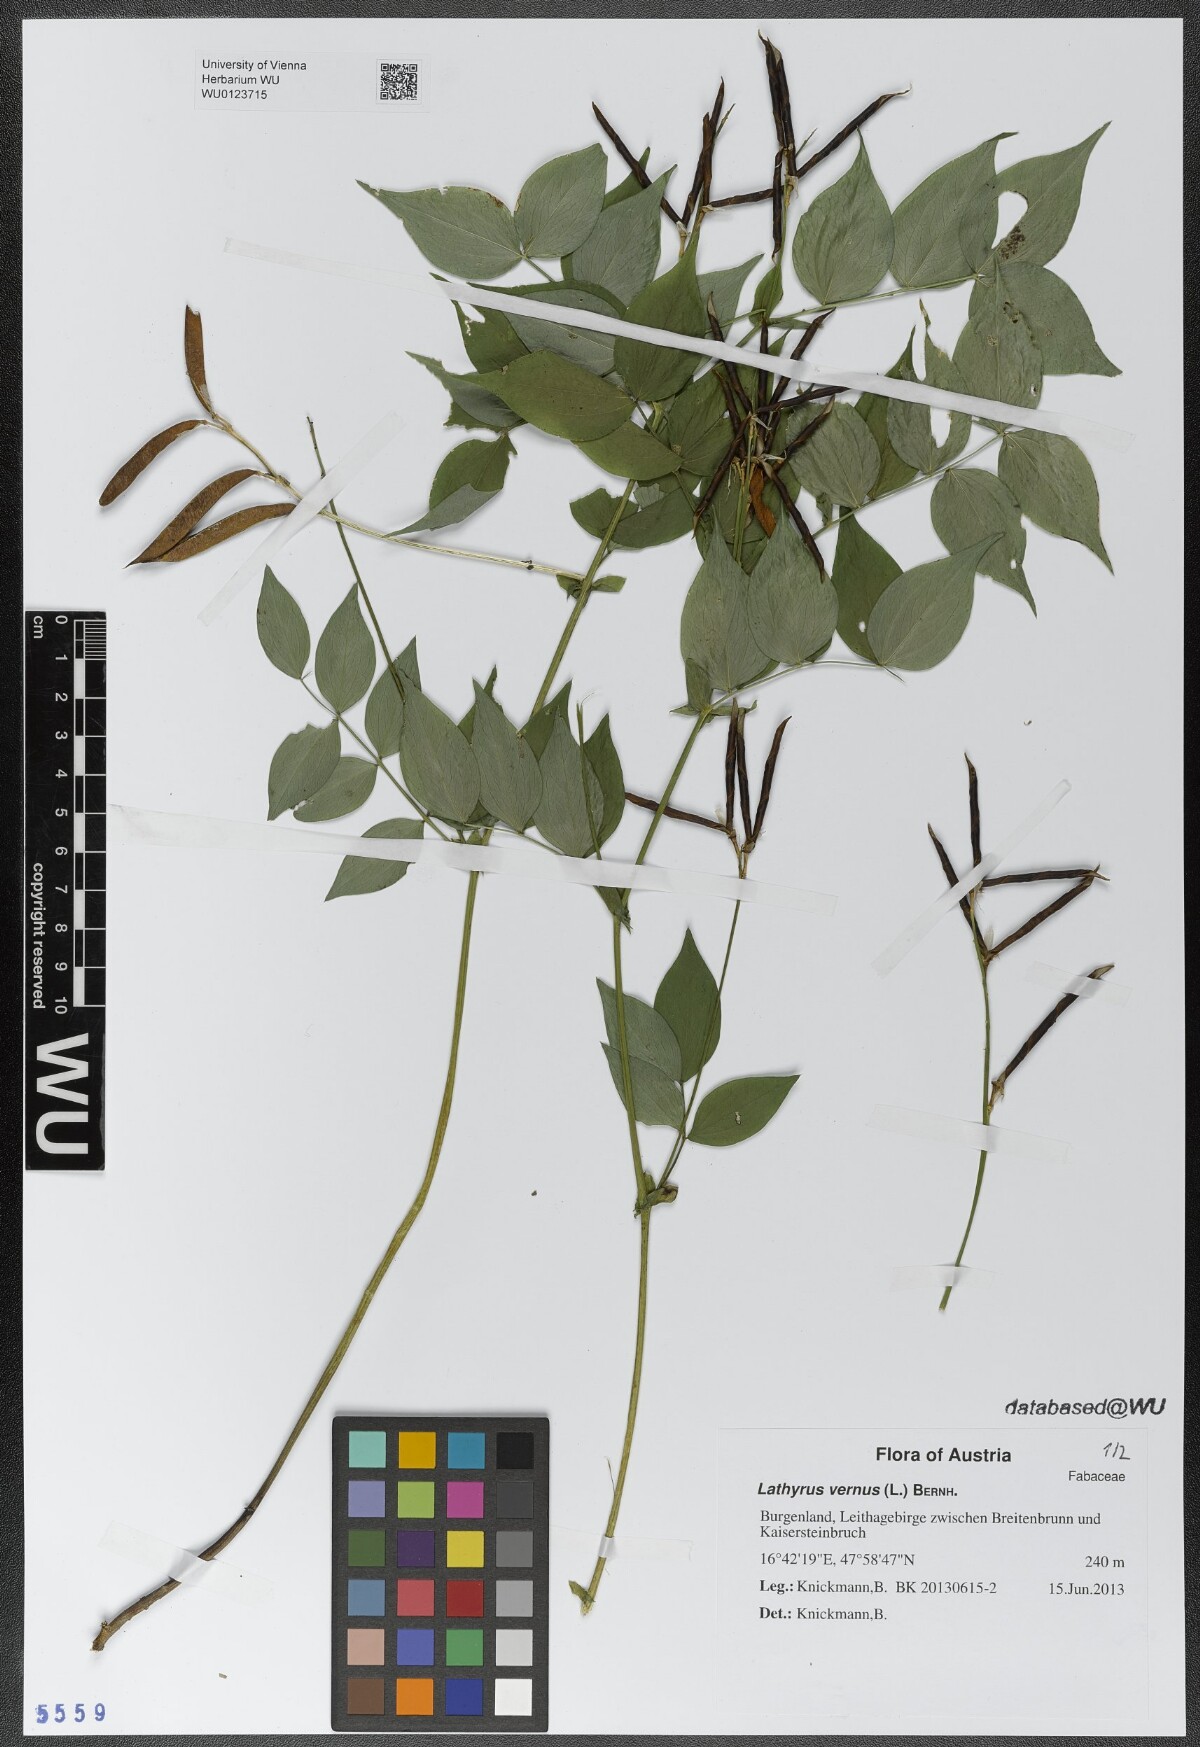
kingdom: Plantae
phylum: Tracheophyta
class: Magnoliopsida
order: Fabales
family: Fabaceae
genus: Lathyrus
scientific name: Lathyrus vernus
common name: Spring pea
